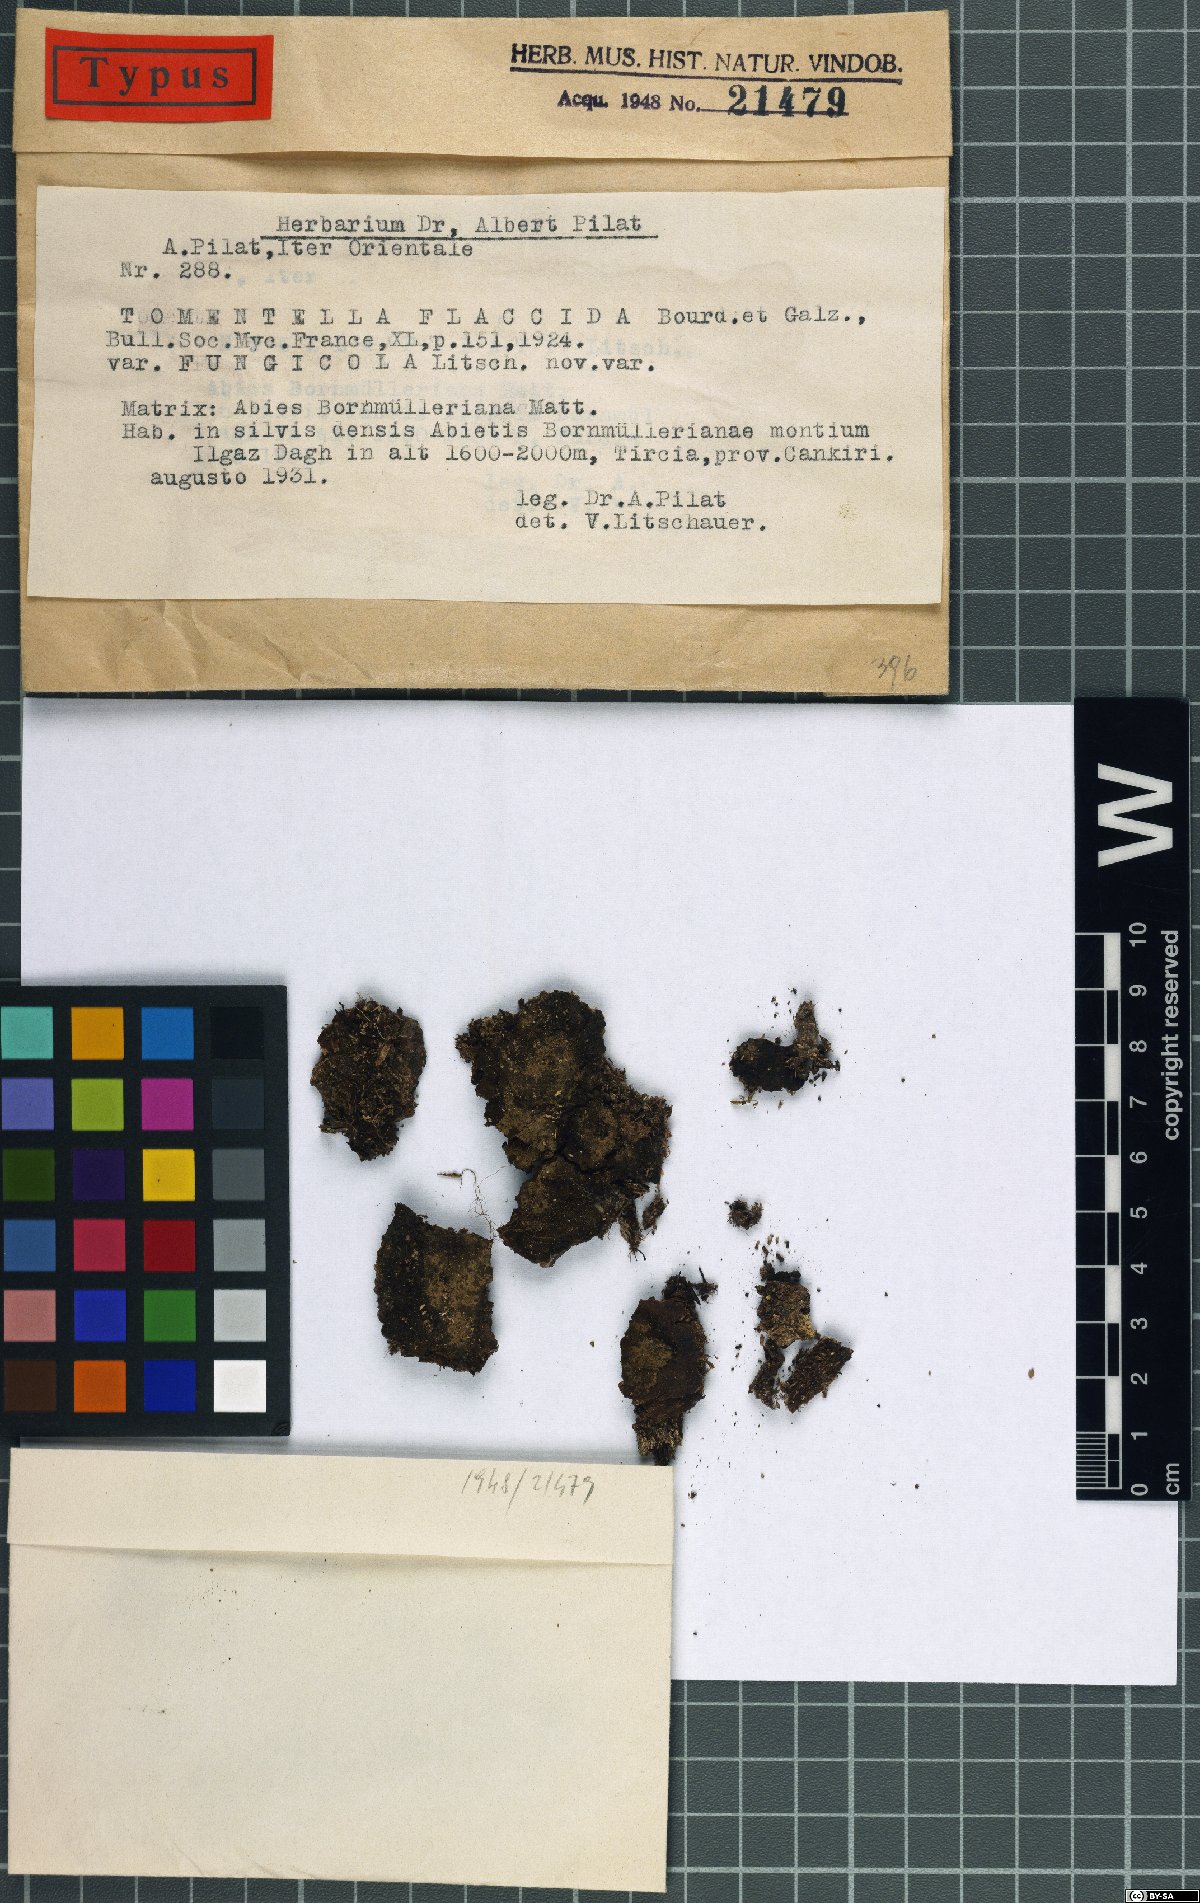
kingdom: Fungi
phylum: Basidiomycota
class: Agaricomycetes
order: Thelephorales
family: Thelephoraceae
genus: Tomentella
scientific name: Tomentella fungicola
